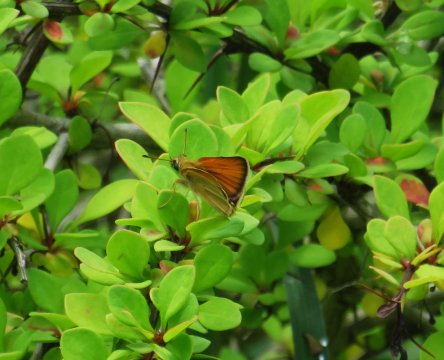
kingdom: Animalia
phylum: Arthropoda
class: Insecta
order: Lepidoptera
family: Hesperiidae
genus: Thymelicus
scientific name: Thymelicus lineola
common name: European Skipper
